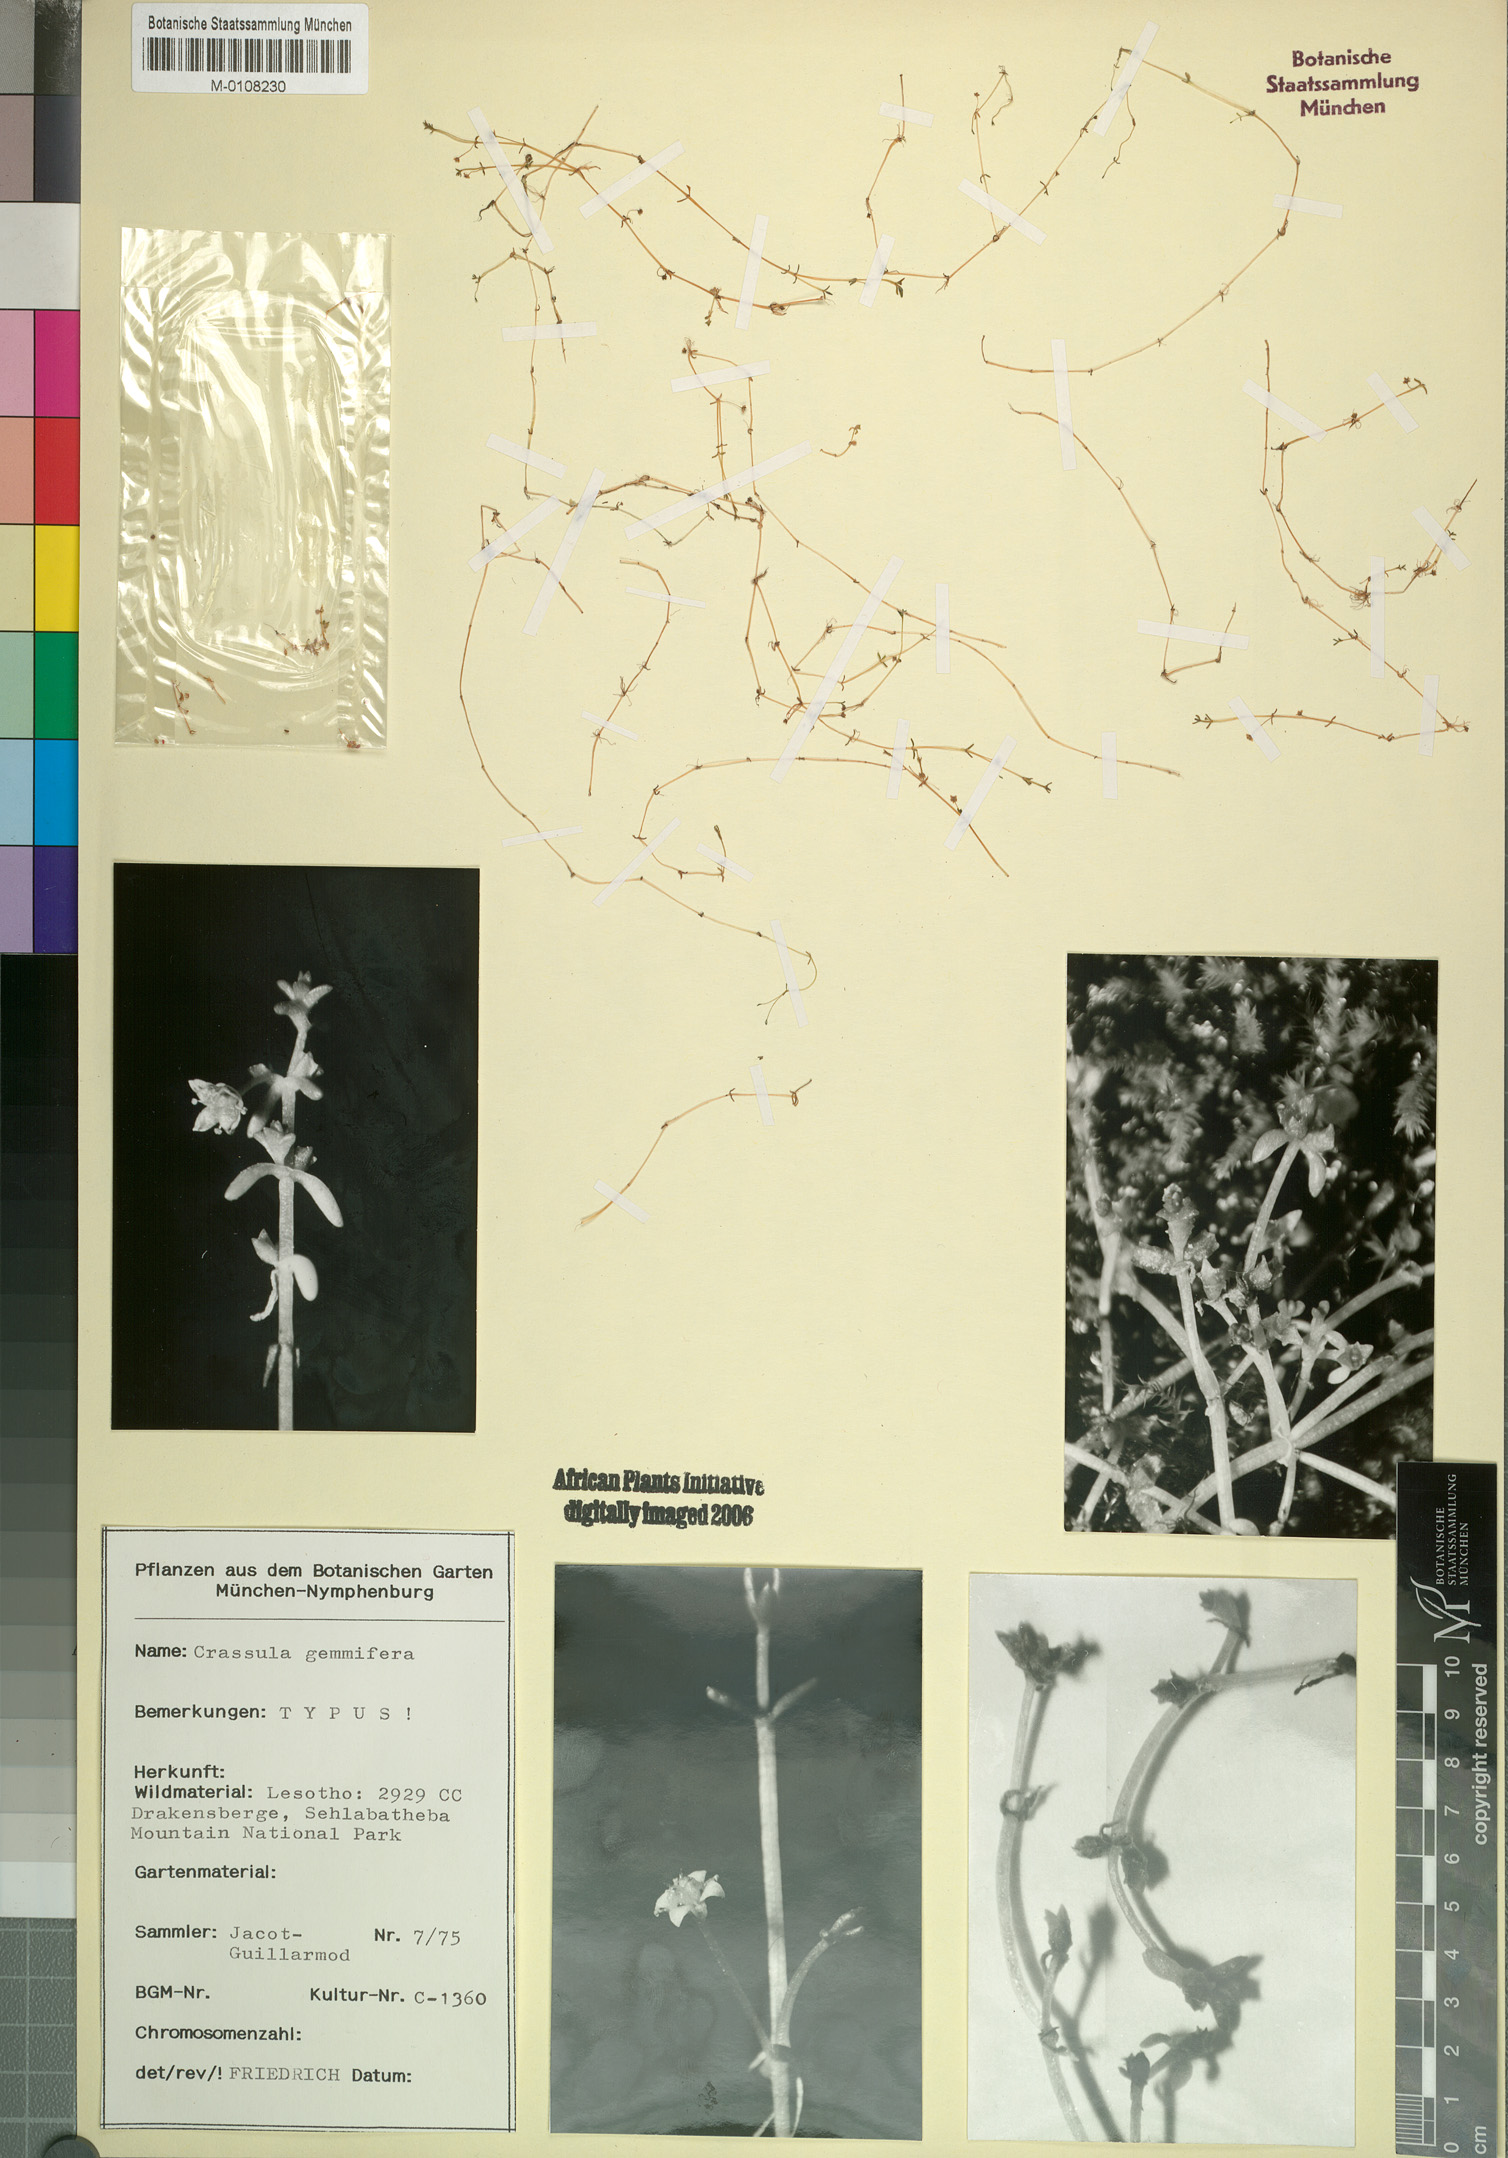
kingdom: Plantae
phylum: Tracheophyta
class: Magnoliopsida
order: Saxifragales
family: Crassulaceae
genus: Crassula
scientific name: Crassula gemmifera
